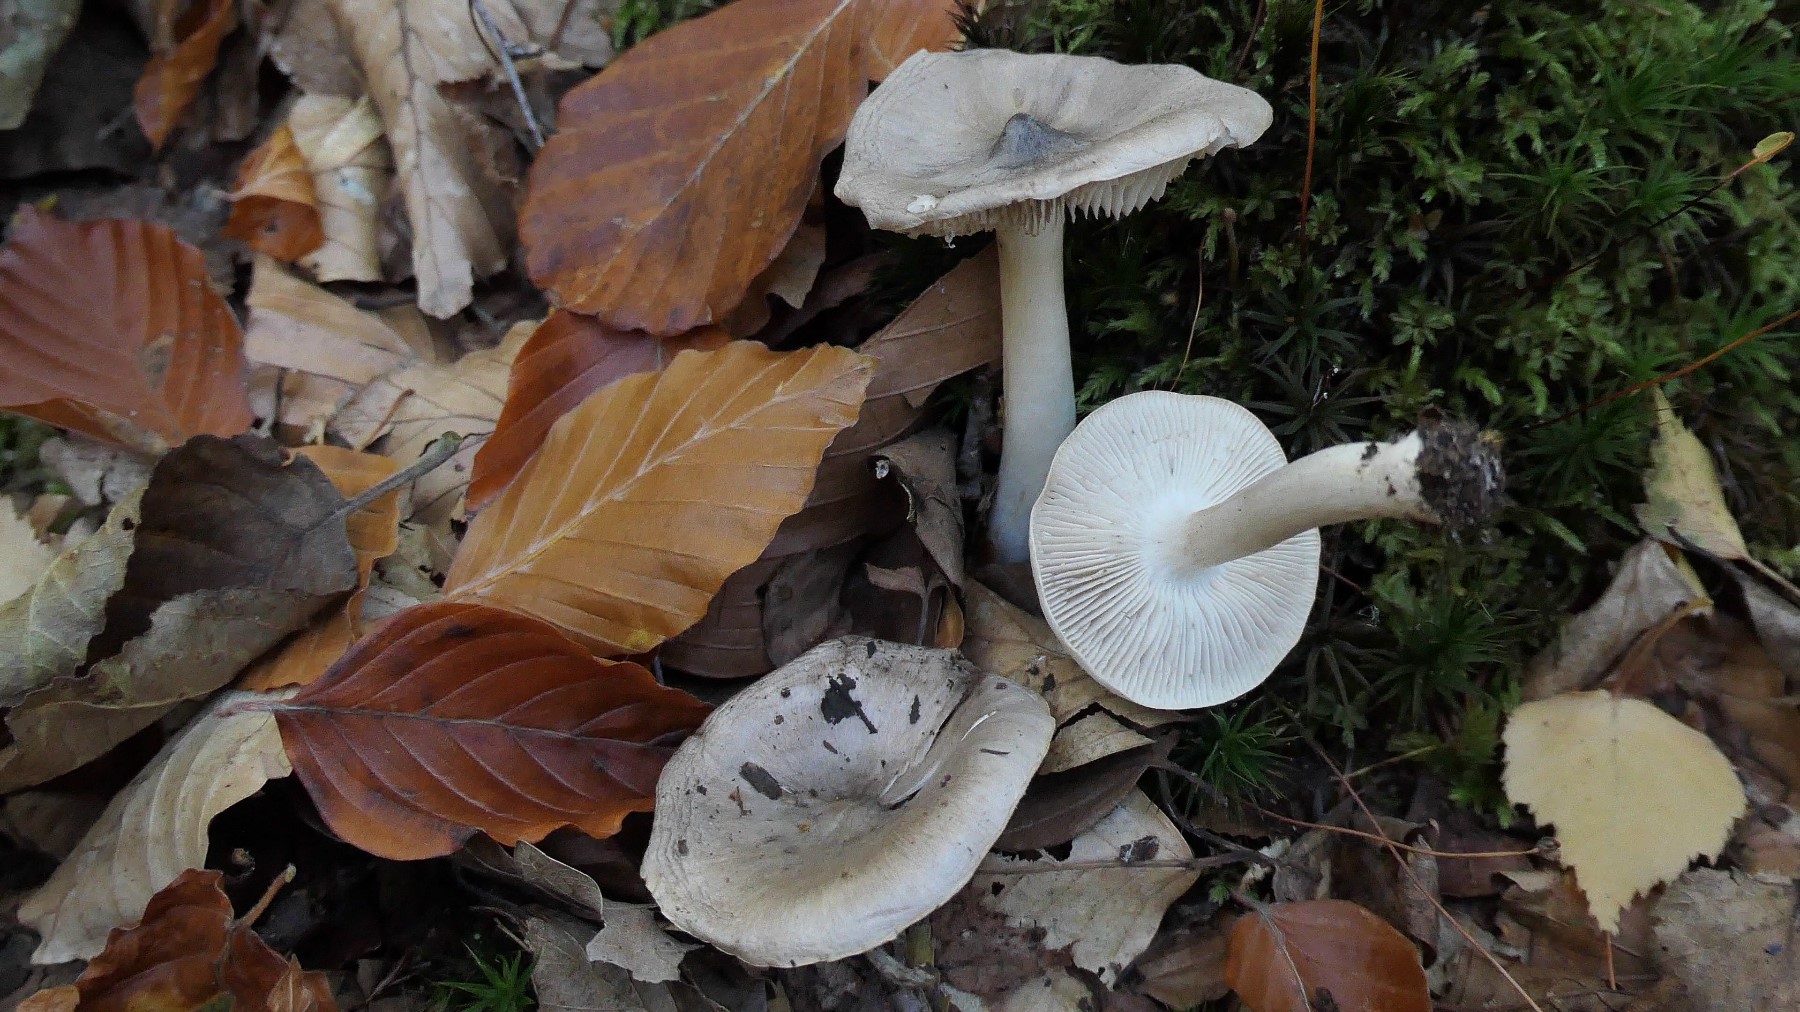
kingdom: Fungi
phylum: Basidiomycota
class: Agaricomycetes
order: Agaricales
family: Tricholomataceae
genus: Tricholoma
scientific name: Tricholoma
